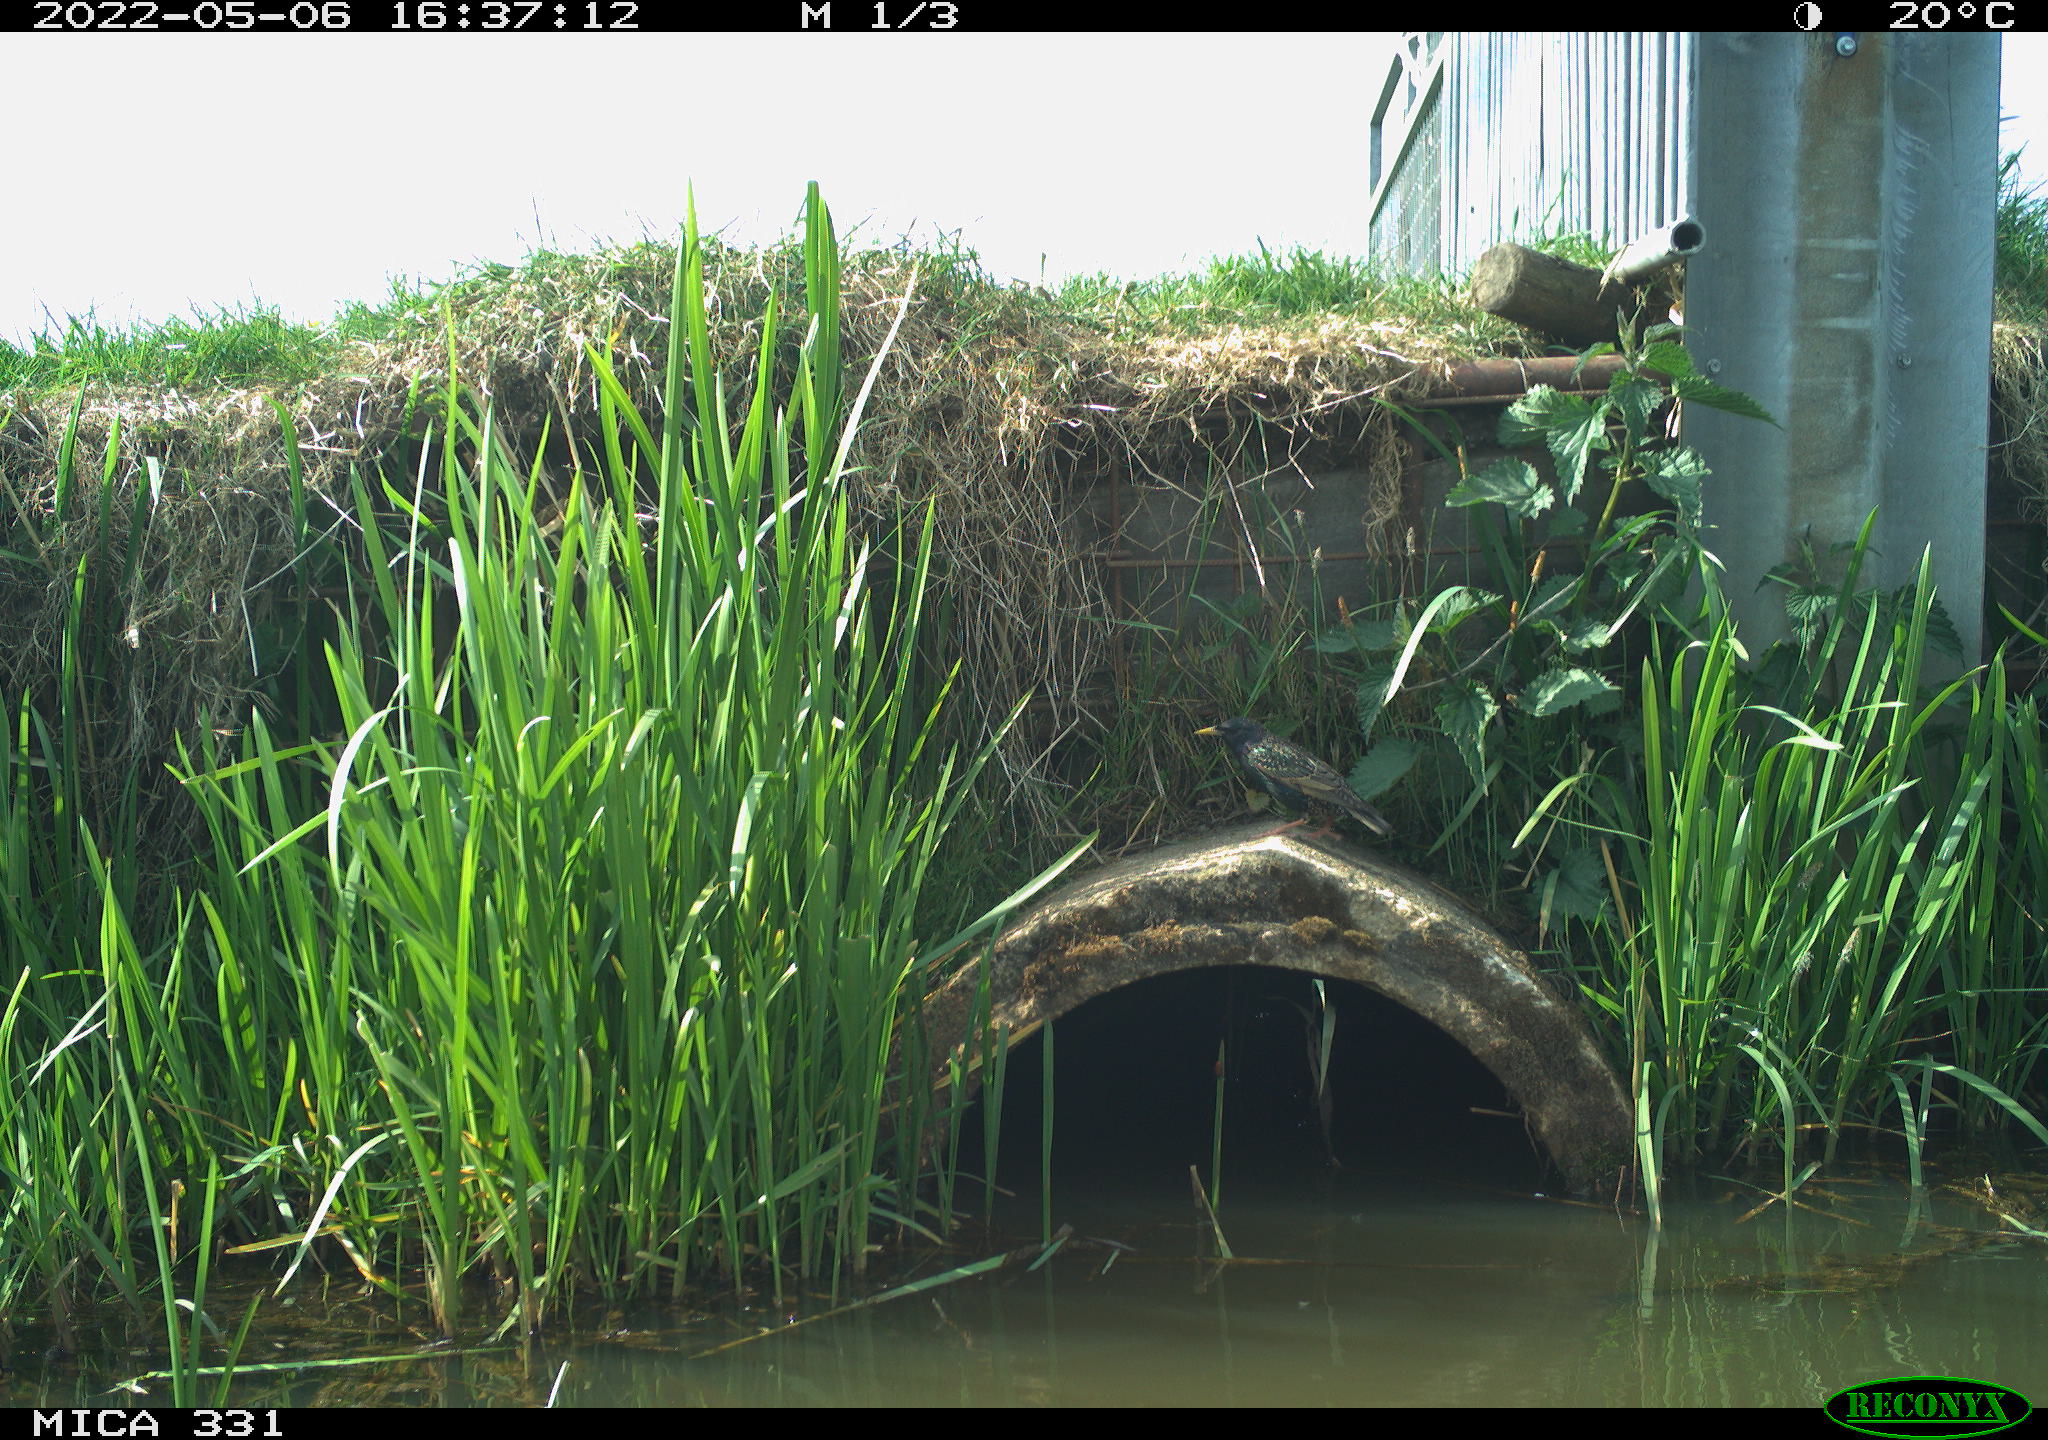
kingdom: Animalia
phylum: Chordata
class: Aves
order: Passeriformes
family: Sturnidae
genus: Sturnus
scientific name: Sturnus vulgaris
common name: Common starling
